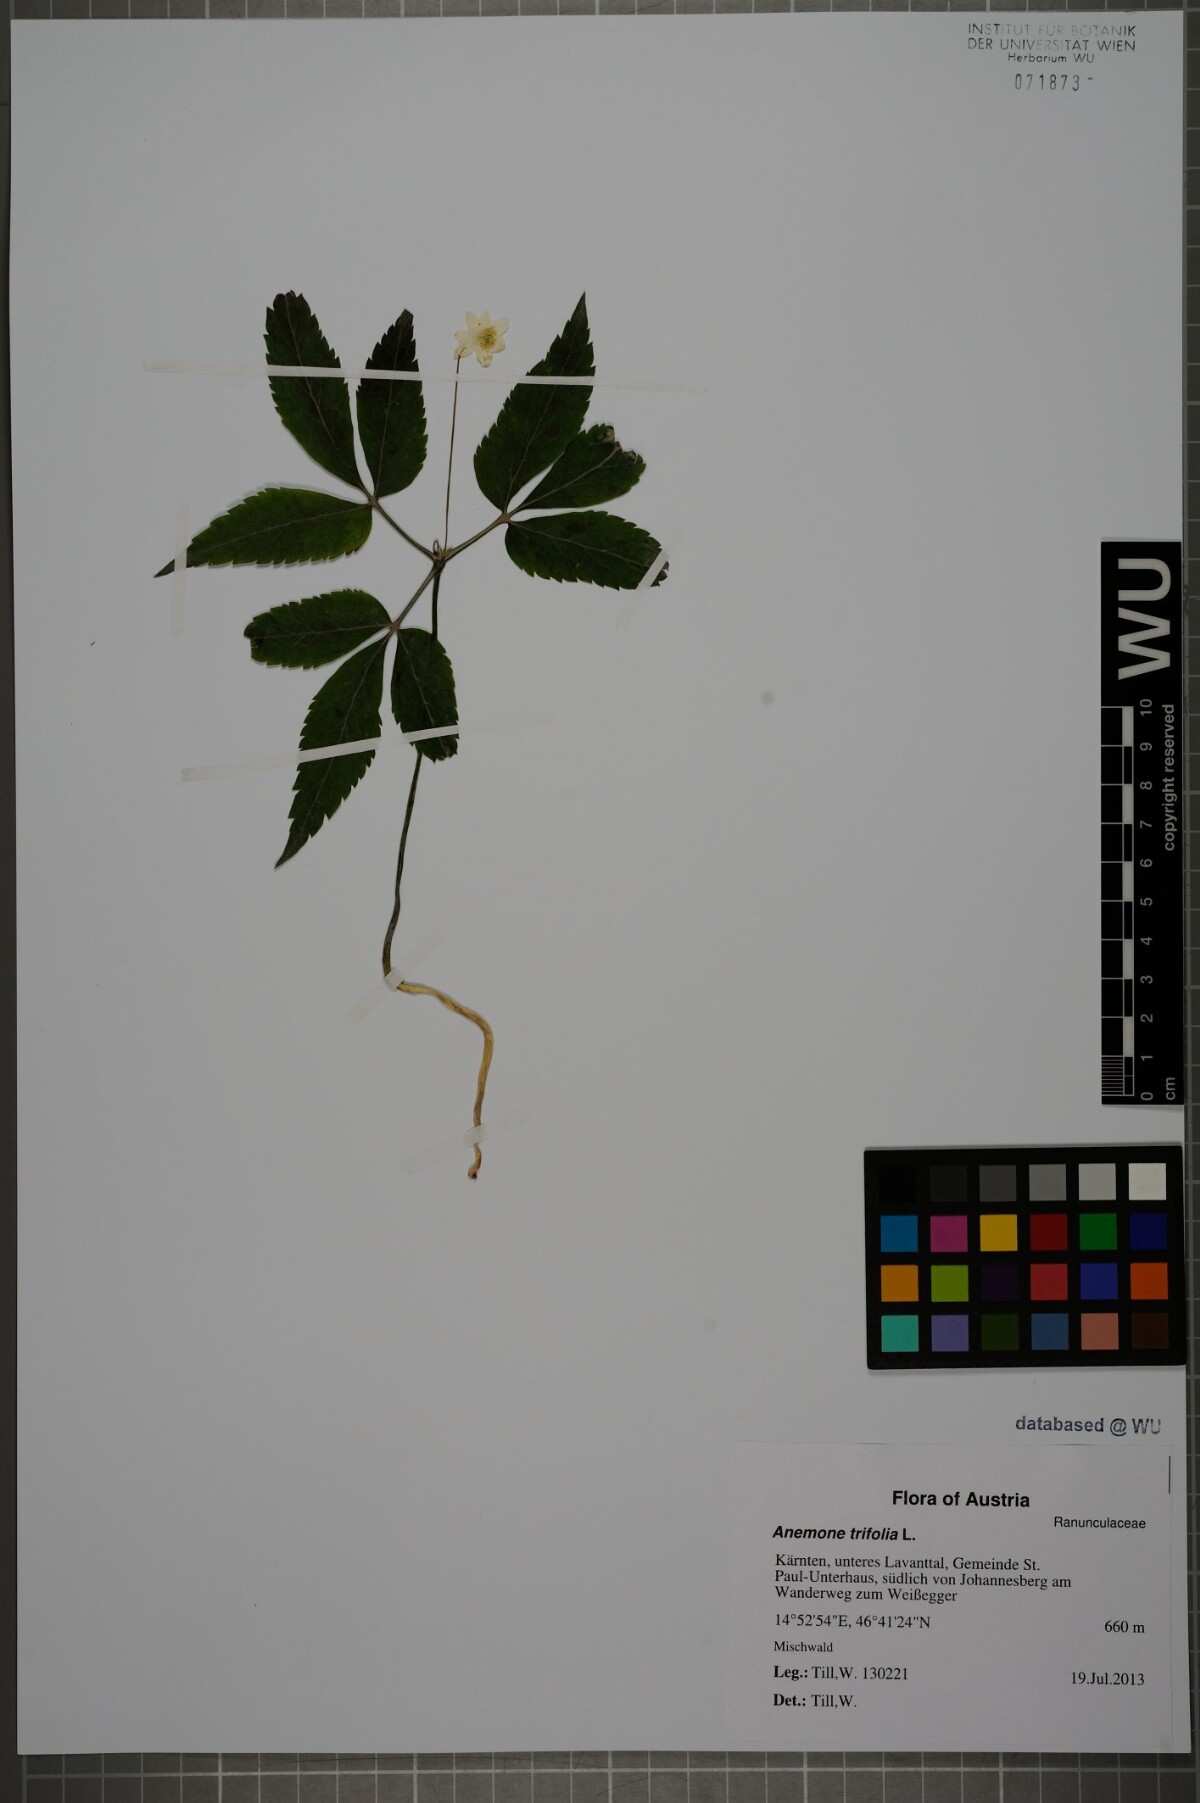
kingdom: Plantae
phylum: Tracheophyta
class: Magnoliopsida
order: Ranunculales
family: Ranunculaceae
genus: Anemone
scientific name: Anemone trifolia
